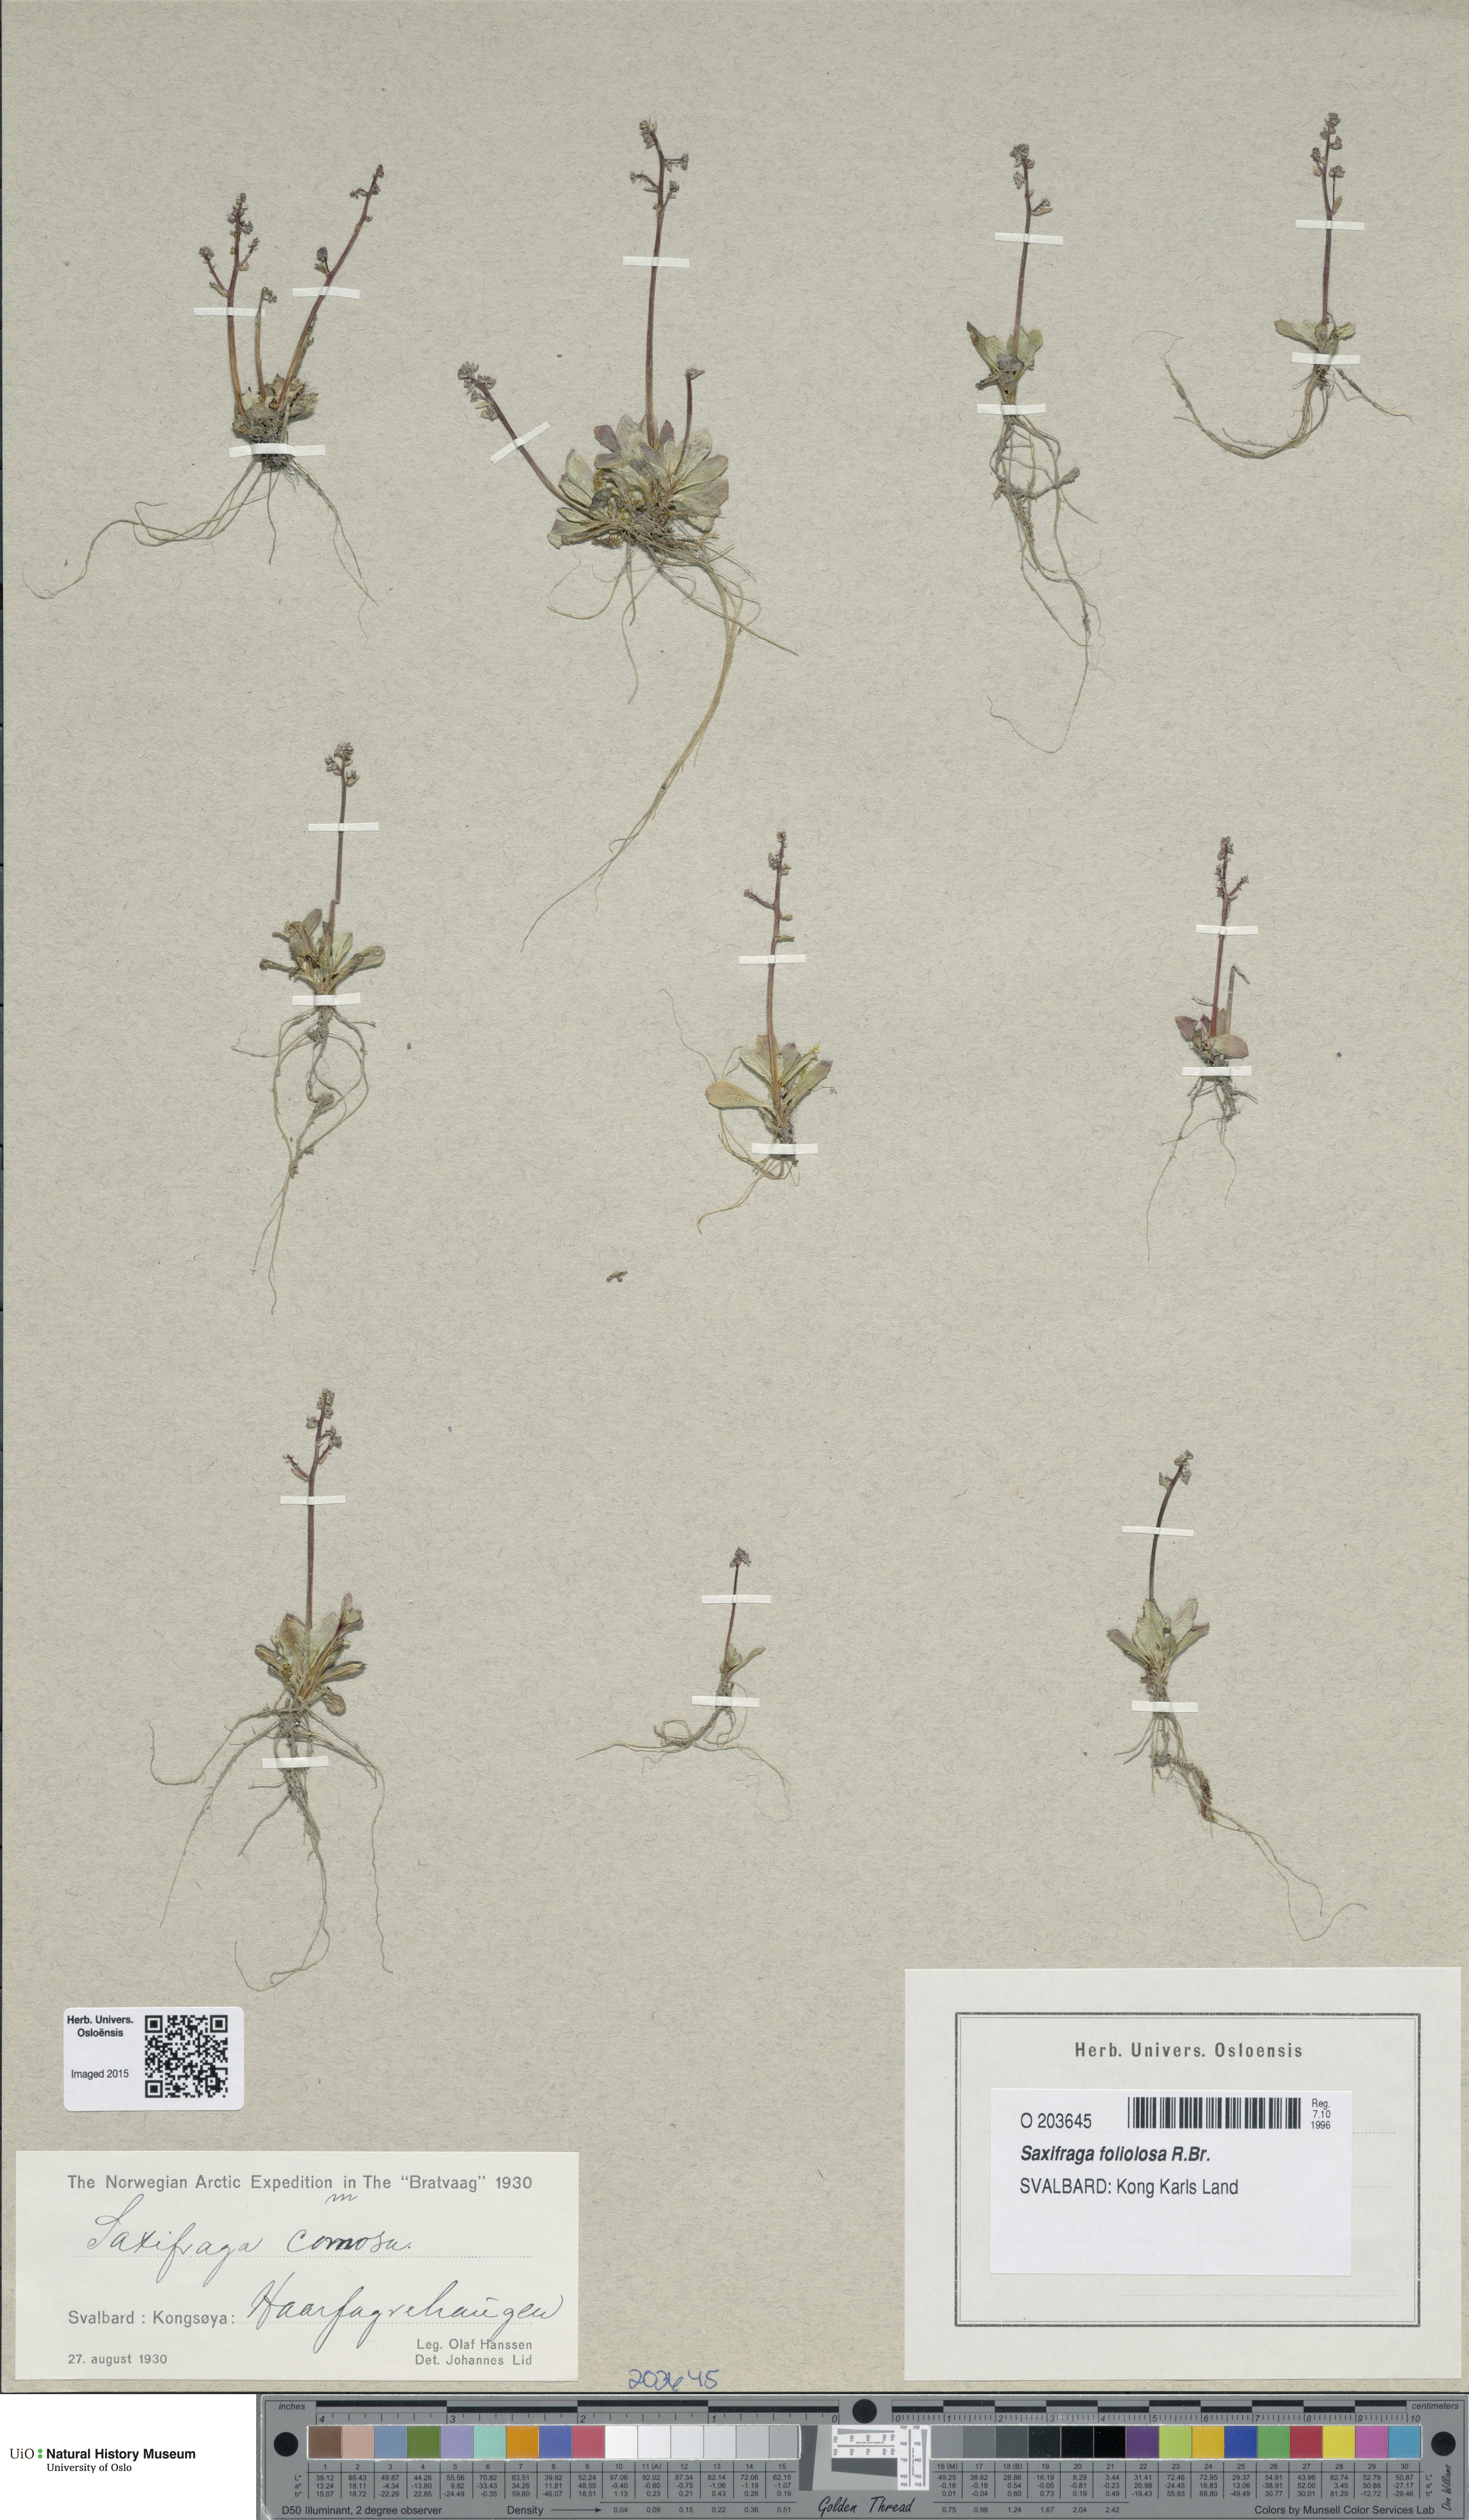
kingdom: Plantae
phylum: Tracheophyta
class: Magnoliopsida
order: Saxifragales
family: Saxifragaceae
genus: Micranthes
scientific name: Micranthes foliolosa
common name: Leafystem saxifrage
